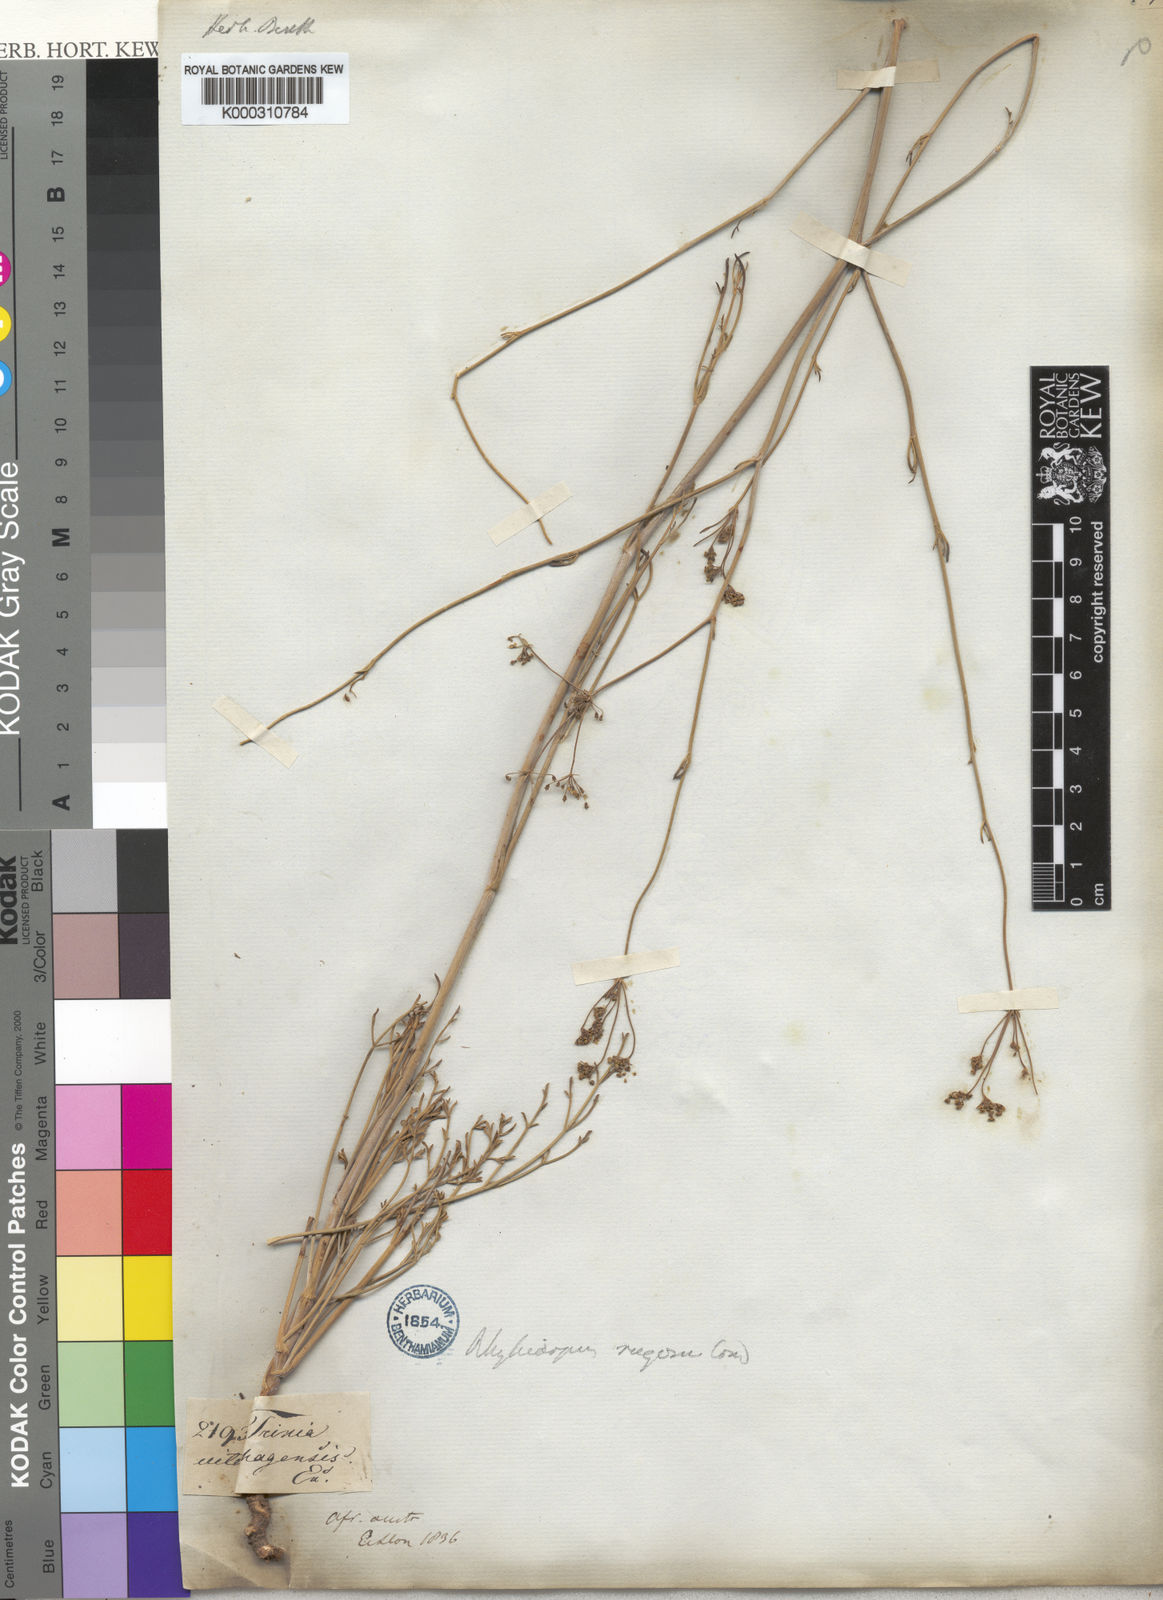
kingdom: Plantae
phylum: Tracheophyta
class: Magnoliopsida
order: Apiales
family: Apiaceae
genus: Anginon
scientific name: Anginon rugosum
